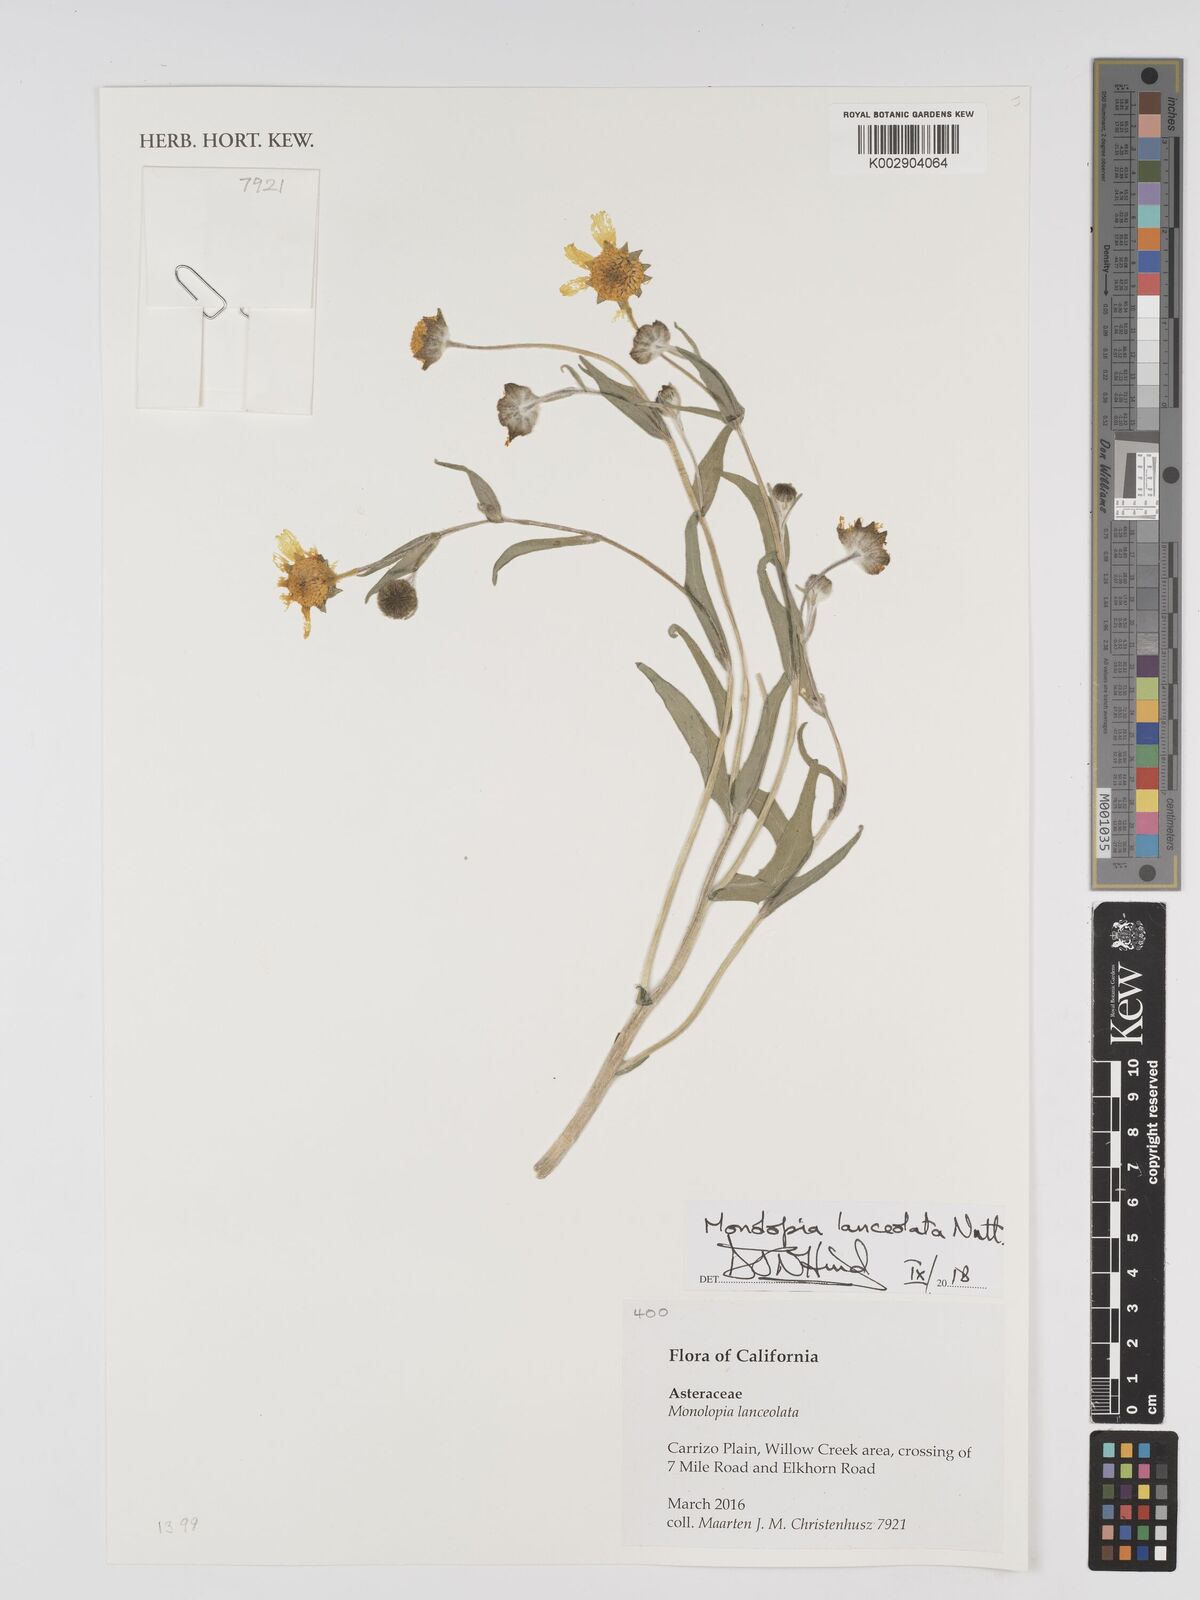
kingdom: Plantae
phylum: Tracheophyta
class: Magnoliopsida
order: Asterales
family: Asteraceae
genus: Monolopia
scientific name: Monolopia lanceolata
